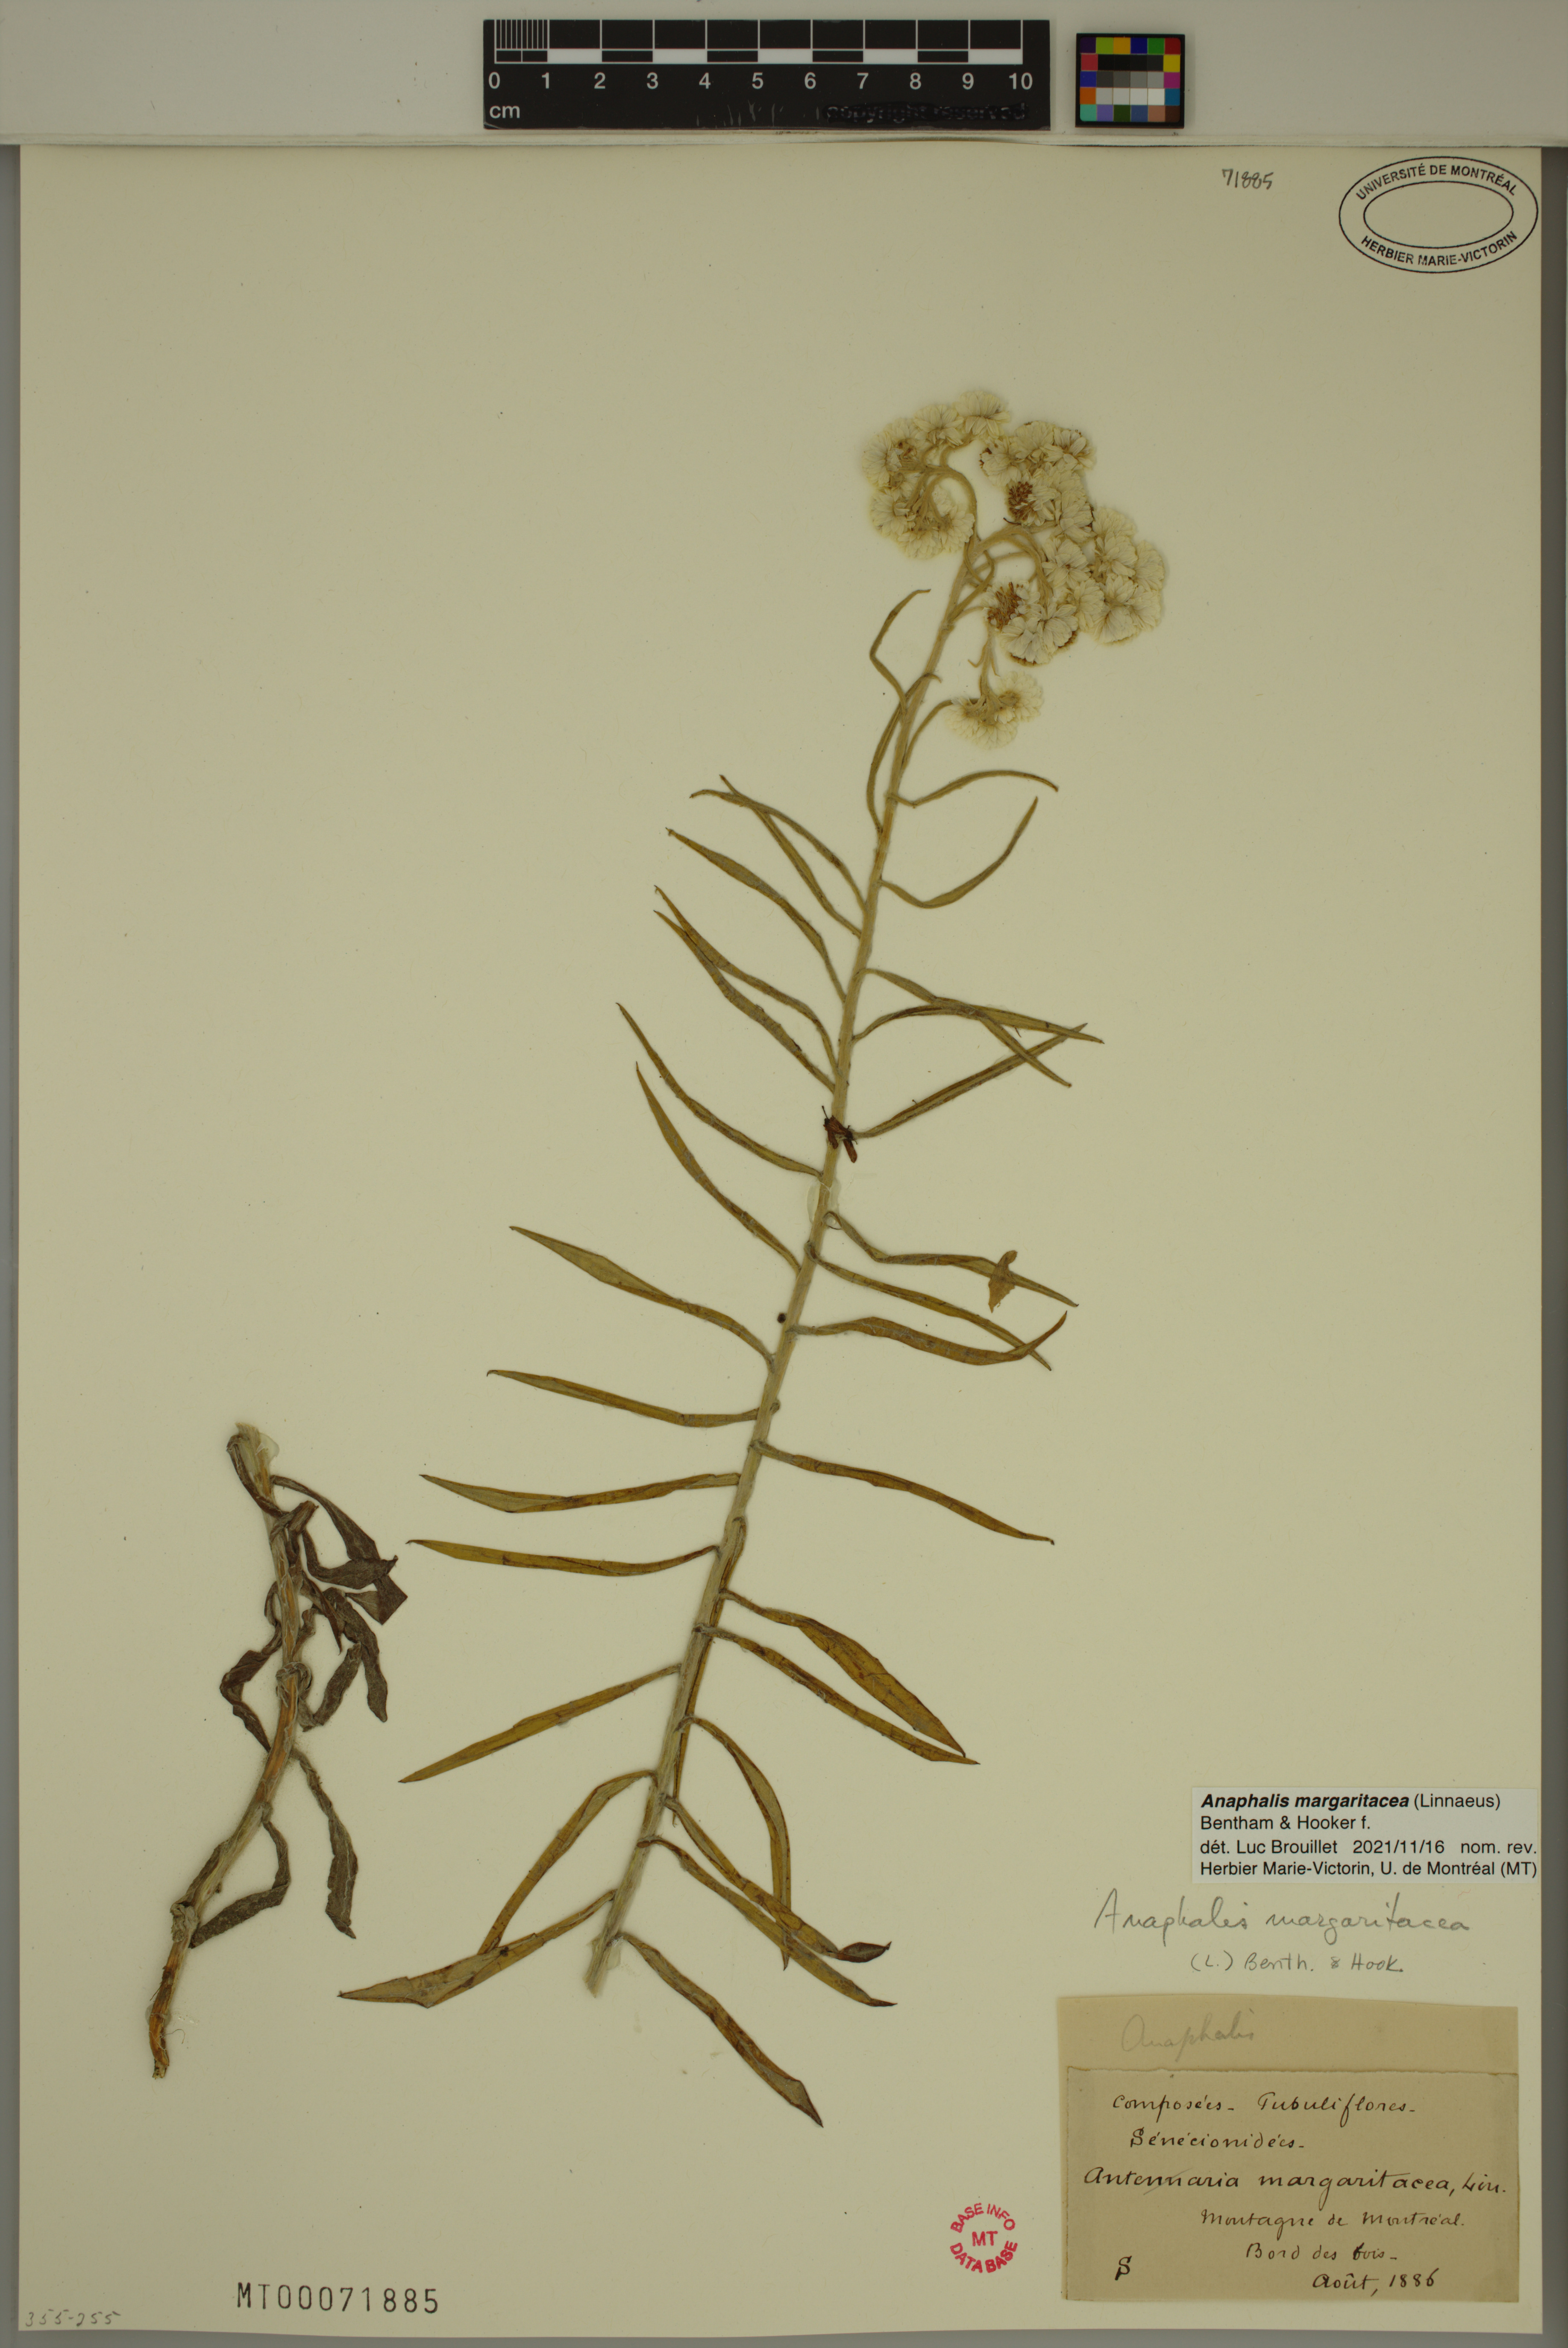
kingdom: Plantae
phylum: Tracheophyta
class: Magnoliopsida
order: Asterales
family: Asteraceae
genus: Antennaria
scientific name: Antennaria margaritacea
